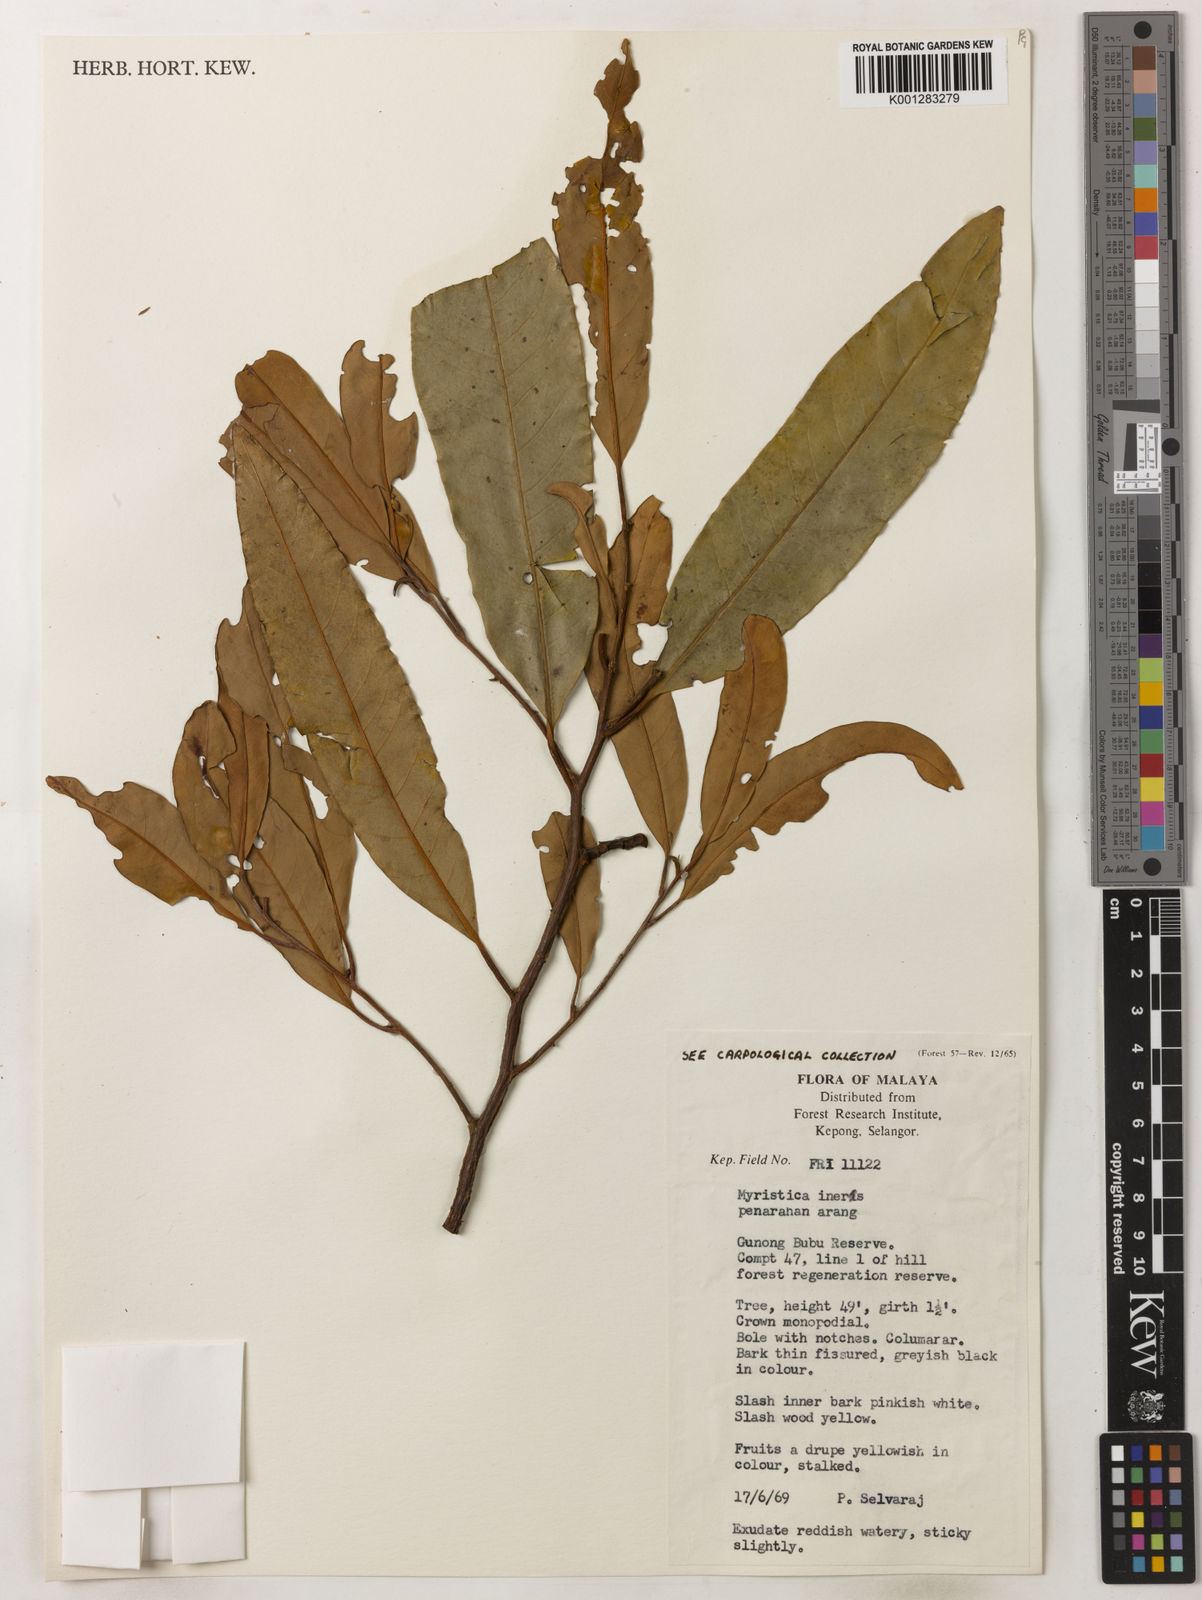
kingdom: Plantae
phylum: Tracheophyta
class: Magnoliopsida
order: Magnoliales
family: Myristicaceae
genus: Myristica
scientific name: Myristica iners
